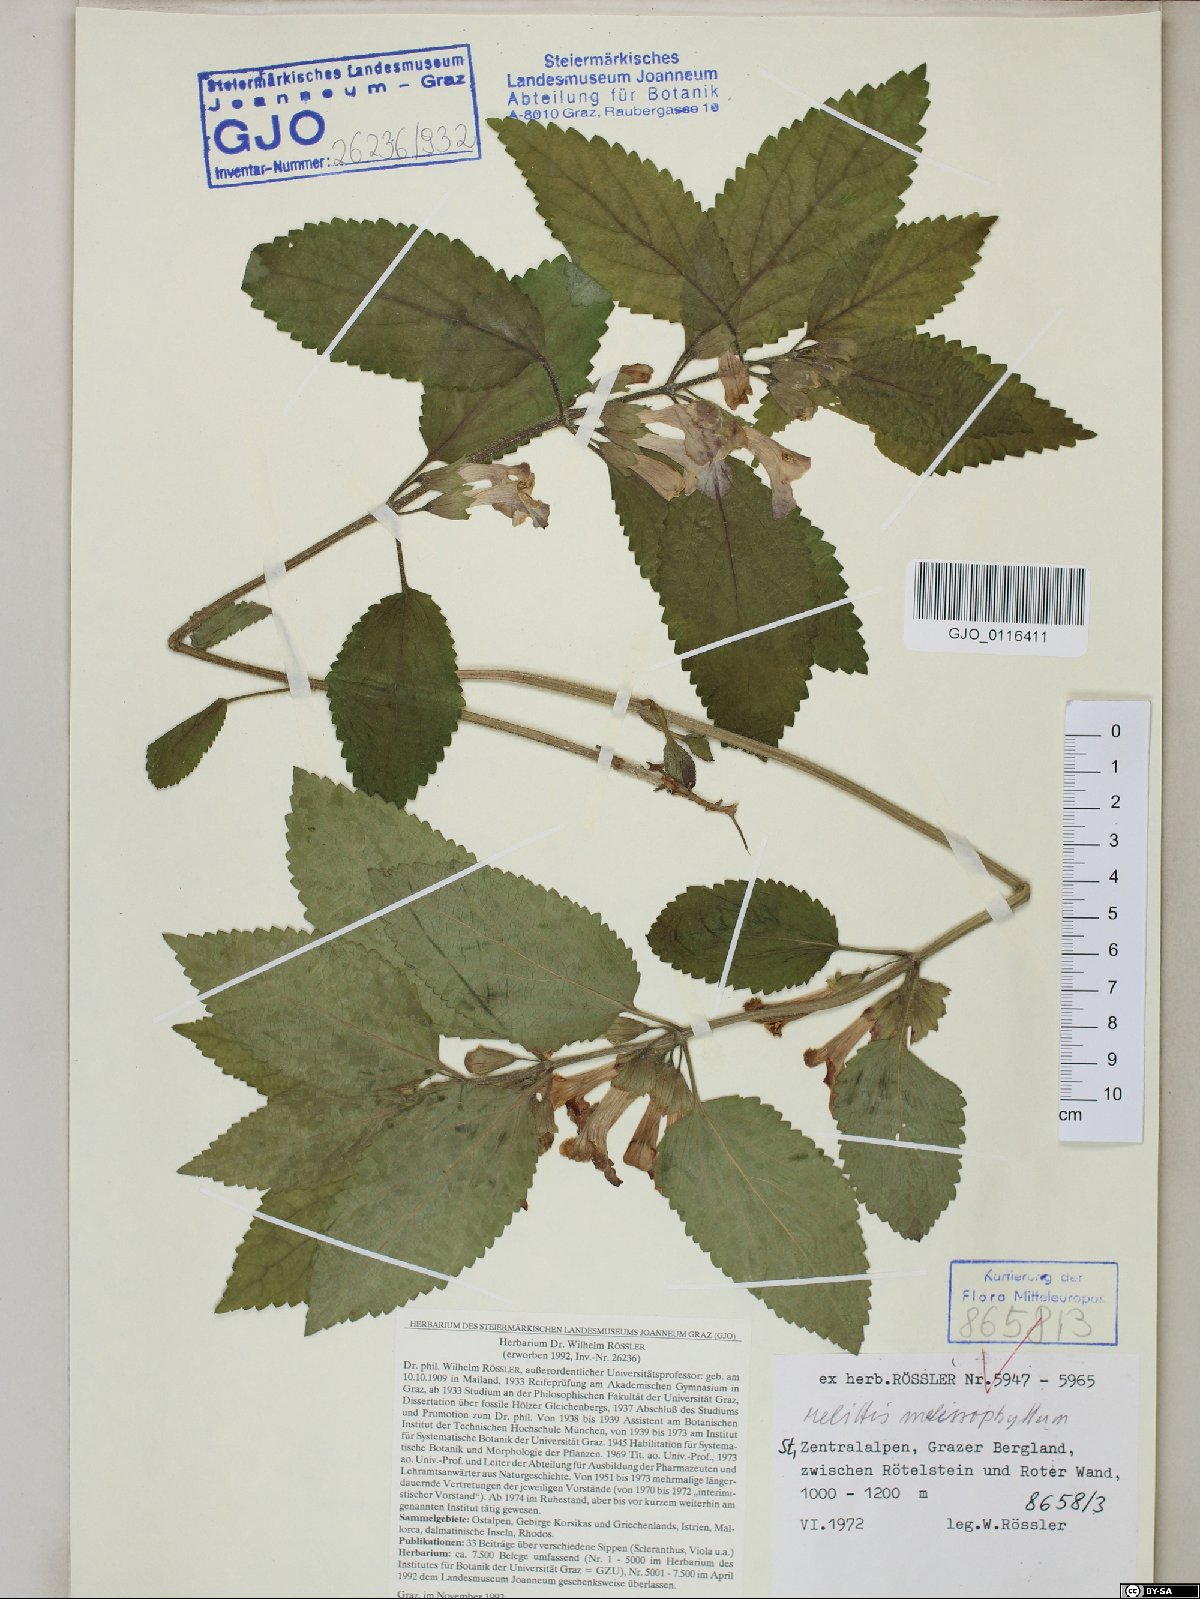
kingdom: Plantae
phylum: Tracheophyta
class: Magnoliopsida
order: Lamiales
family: Lamiaceae
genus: Melittis
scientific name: Melittis melissophyllum
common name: Bastard balm
